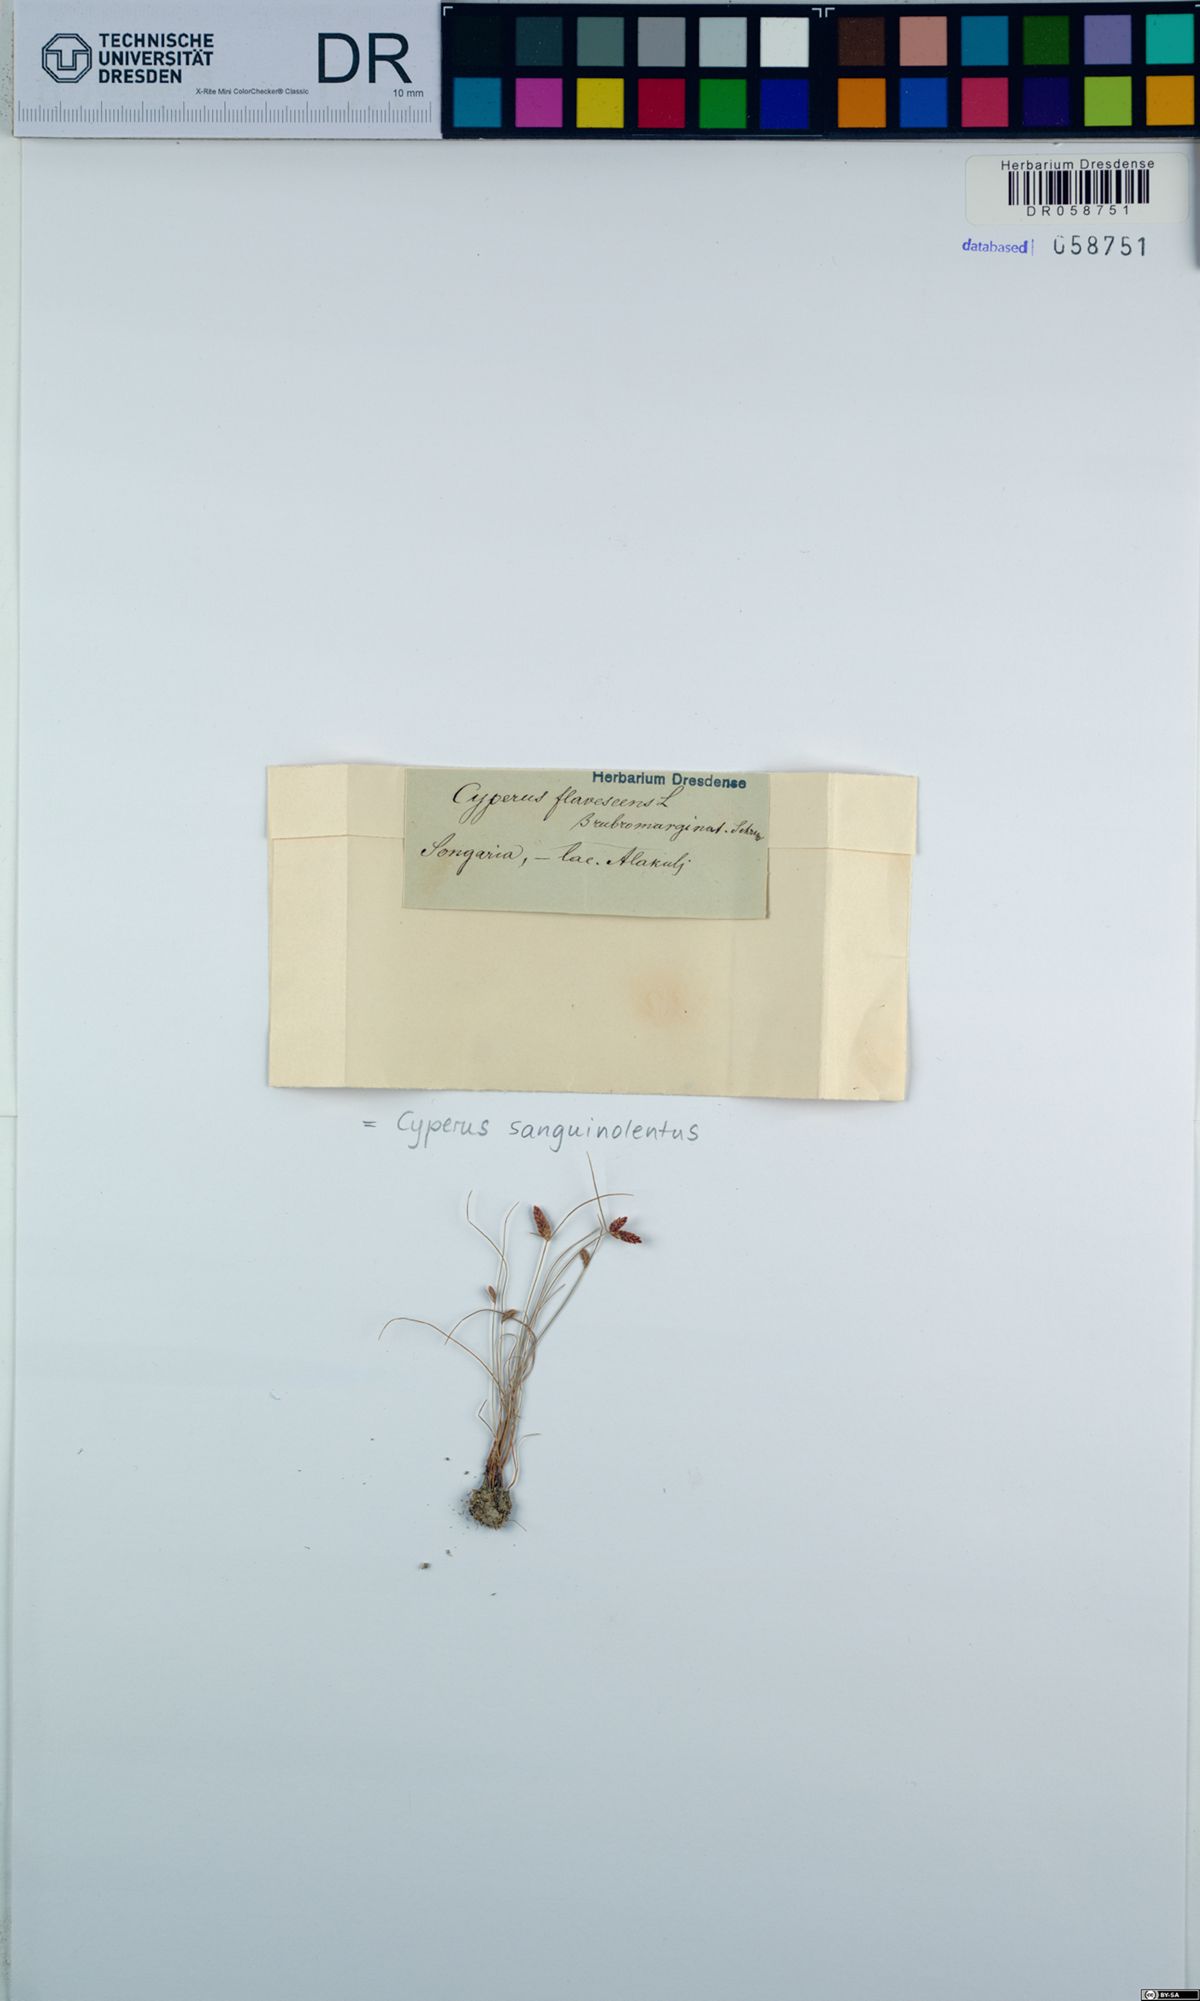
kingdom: Plantae
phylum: Tracheophyta
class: Liliopsida
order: Poales
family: Cyperaceae
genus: Cyperus
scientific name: Cyperus sanguinolentus
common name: Purpleglume flatsedge
